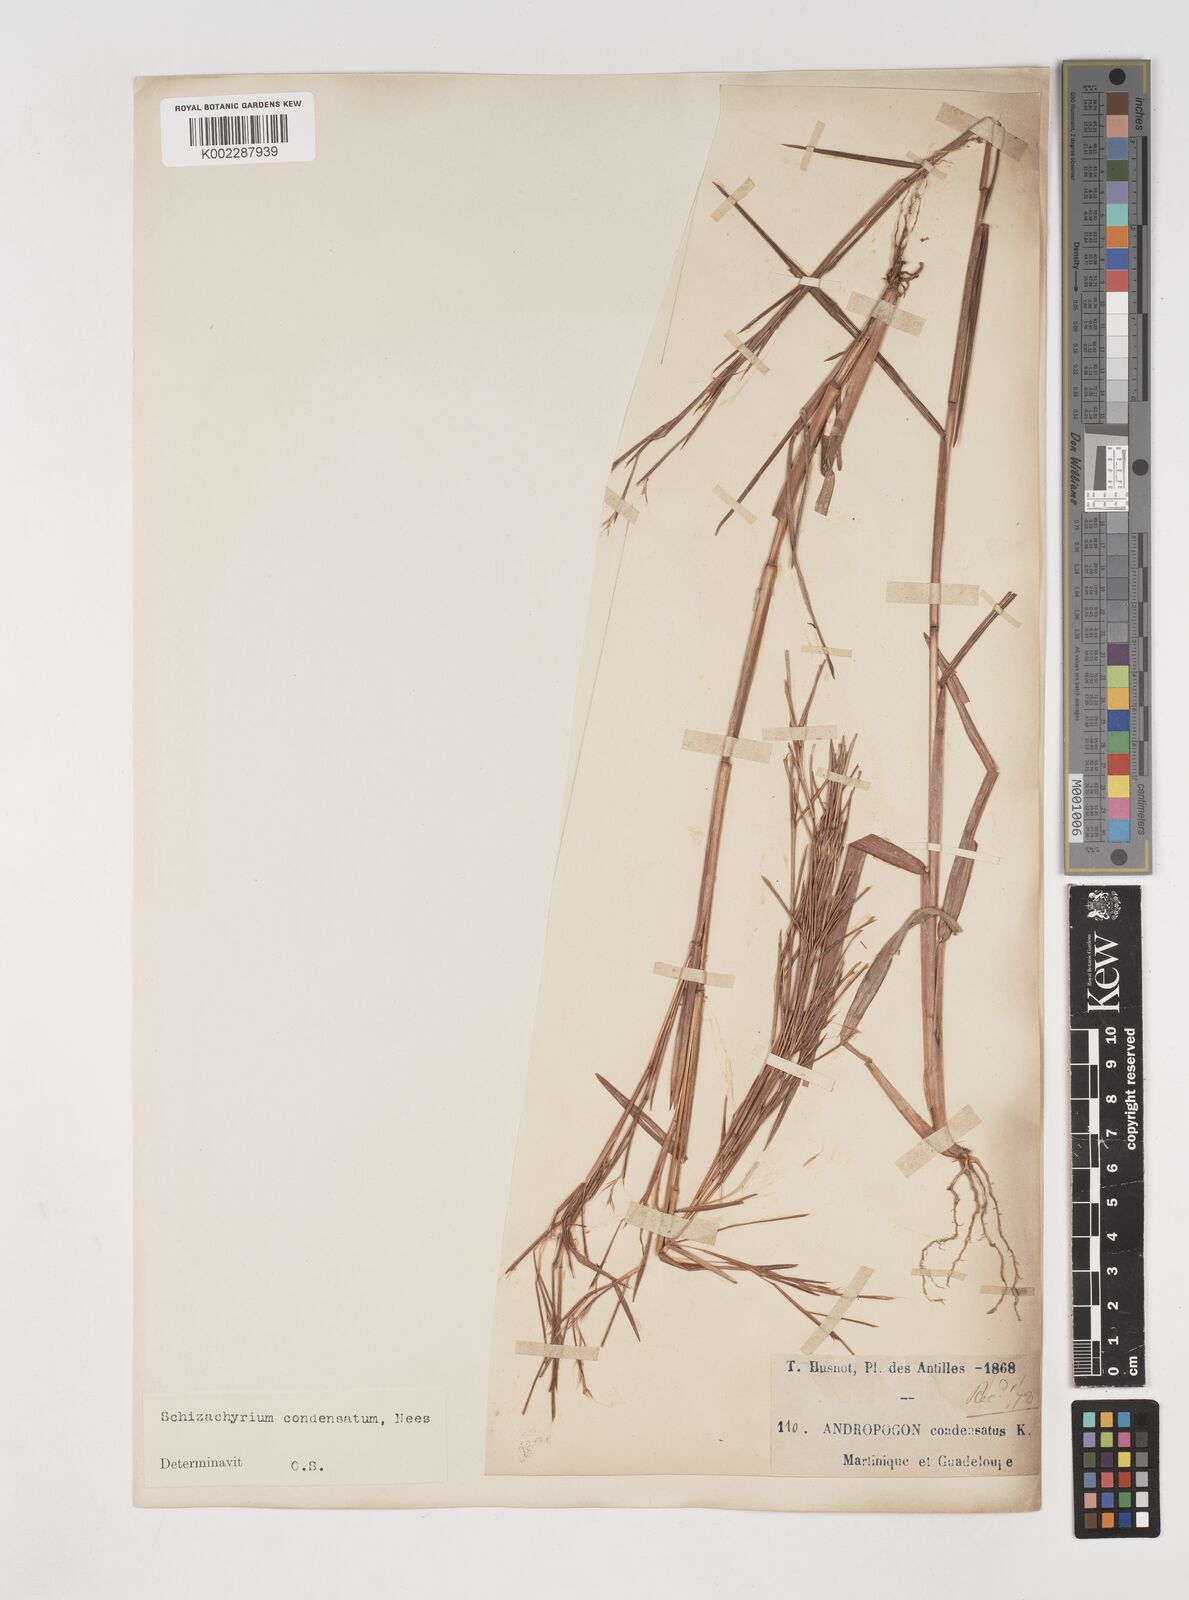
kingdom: Plantae
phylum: Tracheophyta
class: Liliopsida
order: Poales
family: Poaceae
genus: Schizachyrium
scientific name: Schizachyrium condensatum
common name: Bush beardgrass
